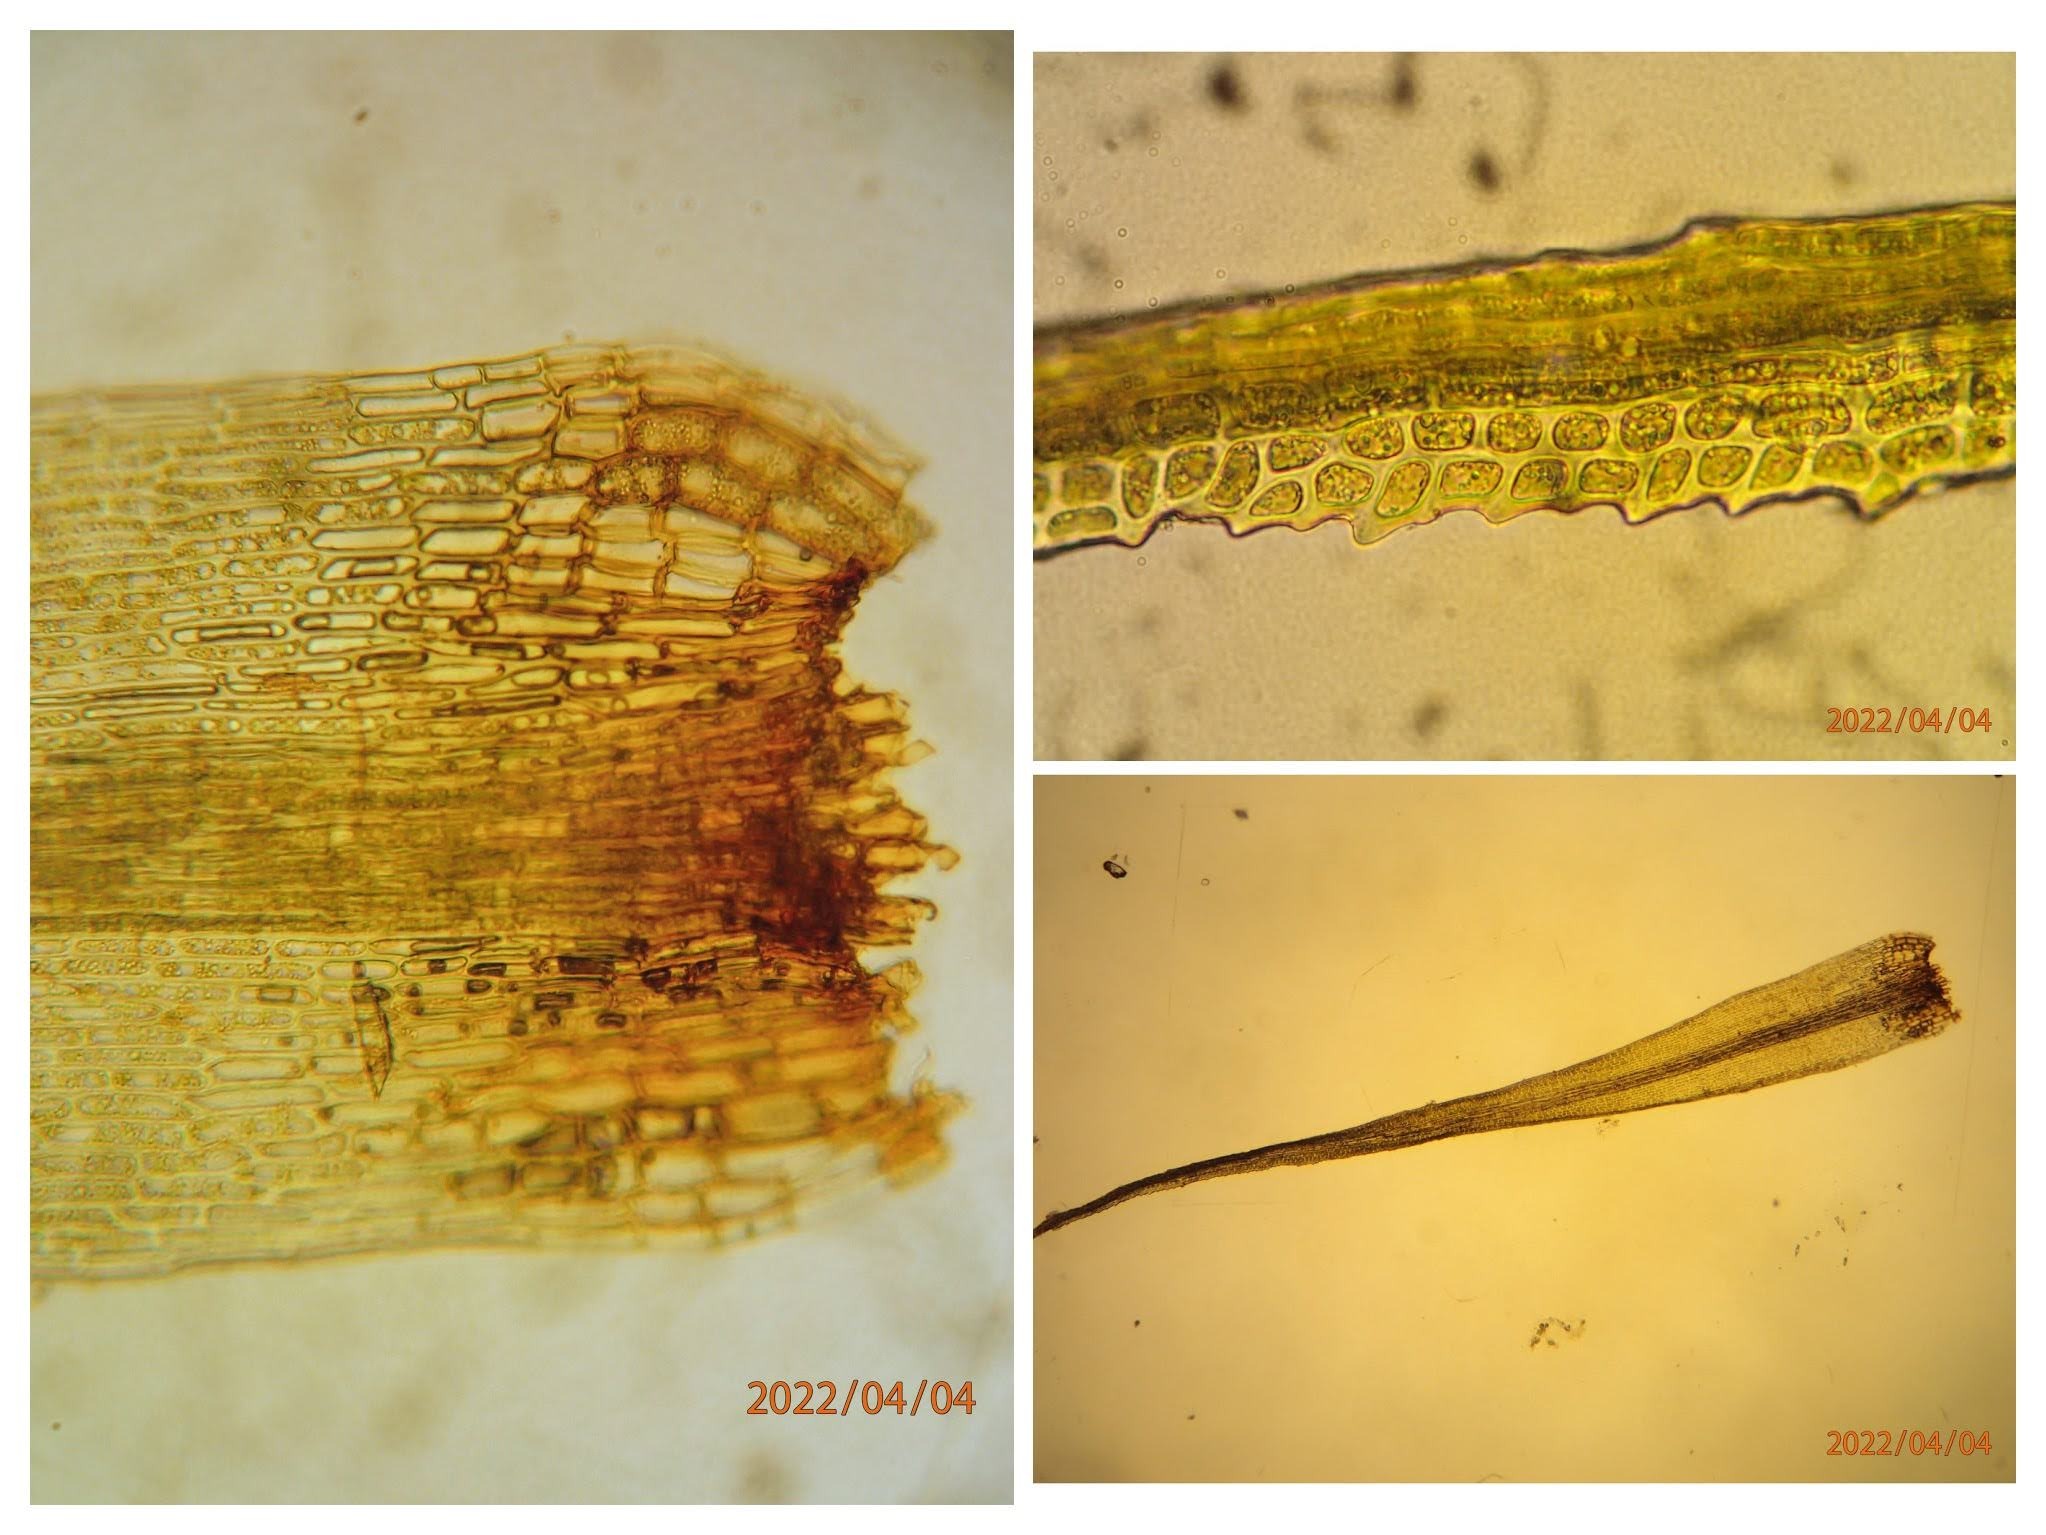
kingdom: Plantae
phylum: Bryophyta
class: Bryopsida
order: Dicranales
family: Dicranaceae
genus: Orthodicranum
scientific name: Orthodicranum montanum
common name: Tæt tyndvinge
